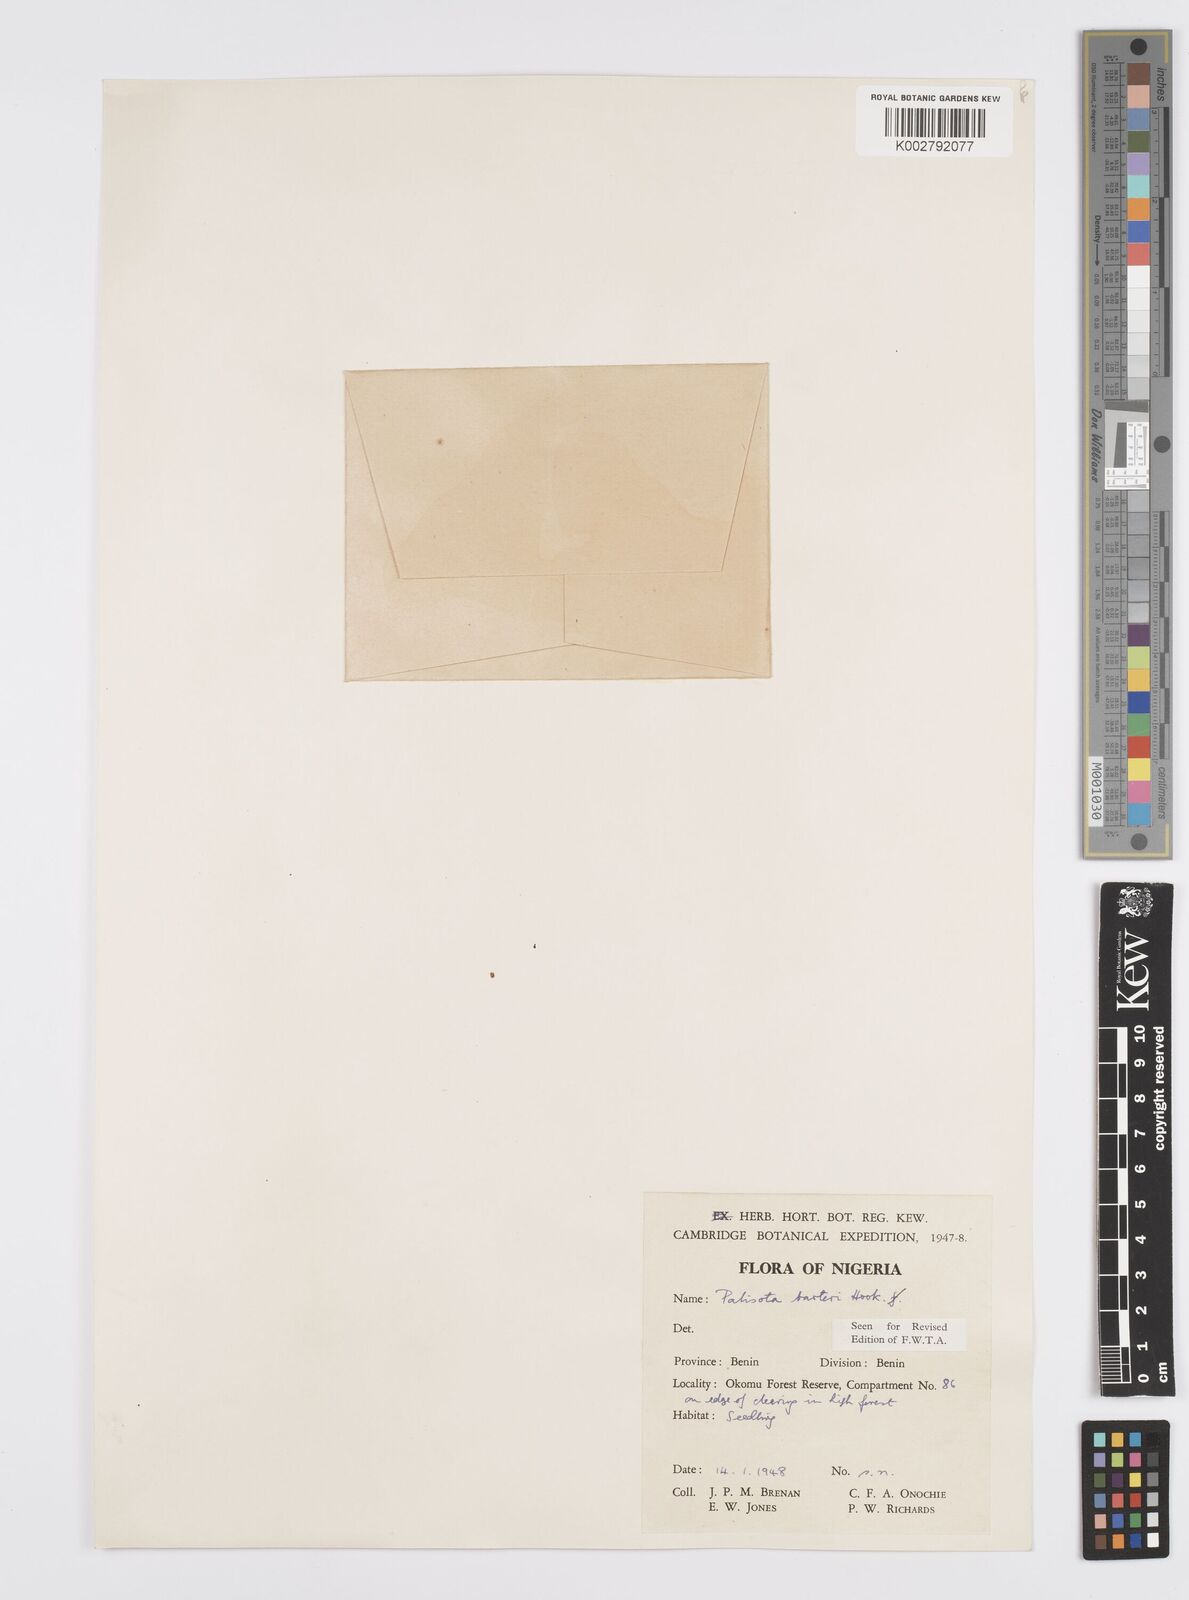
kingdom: Plantae
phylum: Tracheophyta
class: Liliopsida
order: Commelinales
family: Commelinaceae
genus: Palisota
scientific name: Palisota barteri
